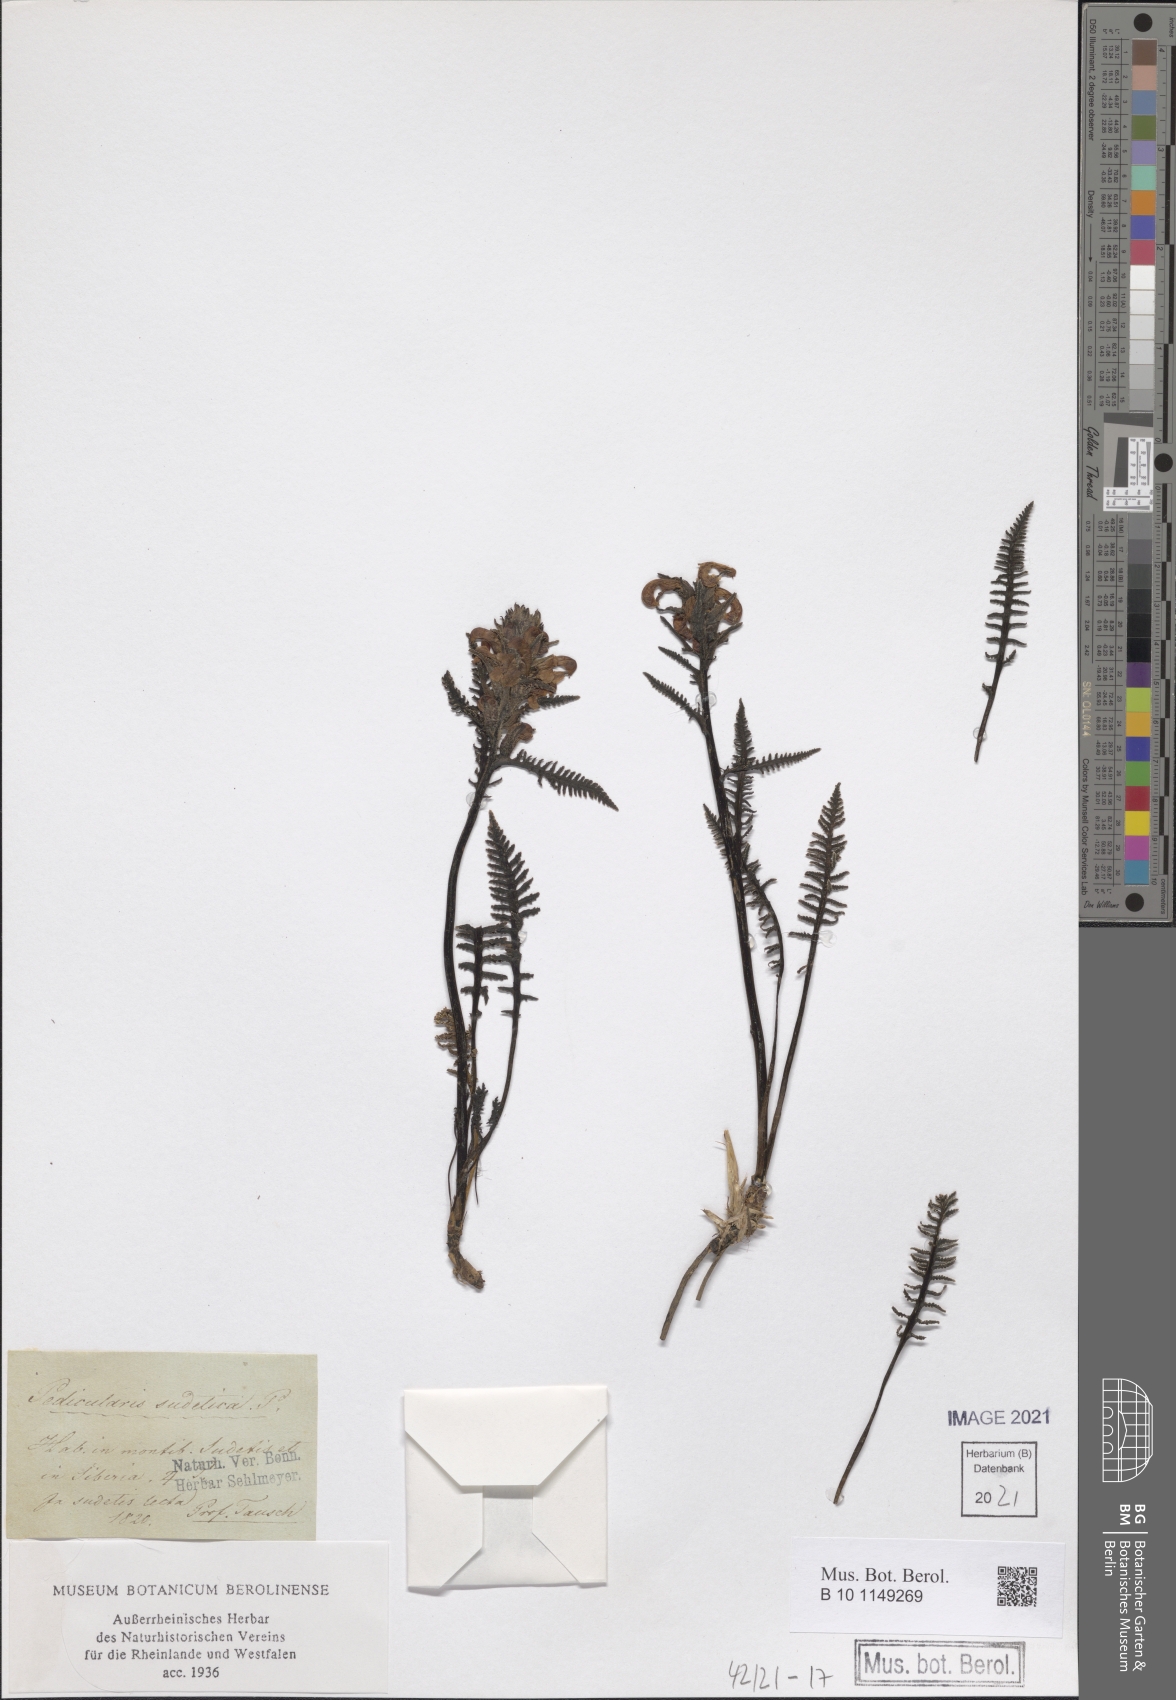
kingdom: Plantae
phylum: Tracheophyta
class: Magnoliopsida
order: Lamiales
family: Orobanchaceae
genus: Pedicularis
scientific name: Pedicularis sudetica
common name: Sudeten lousewort
